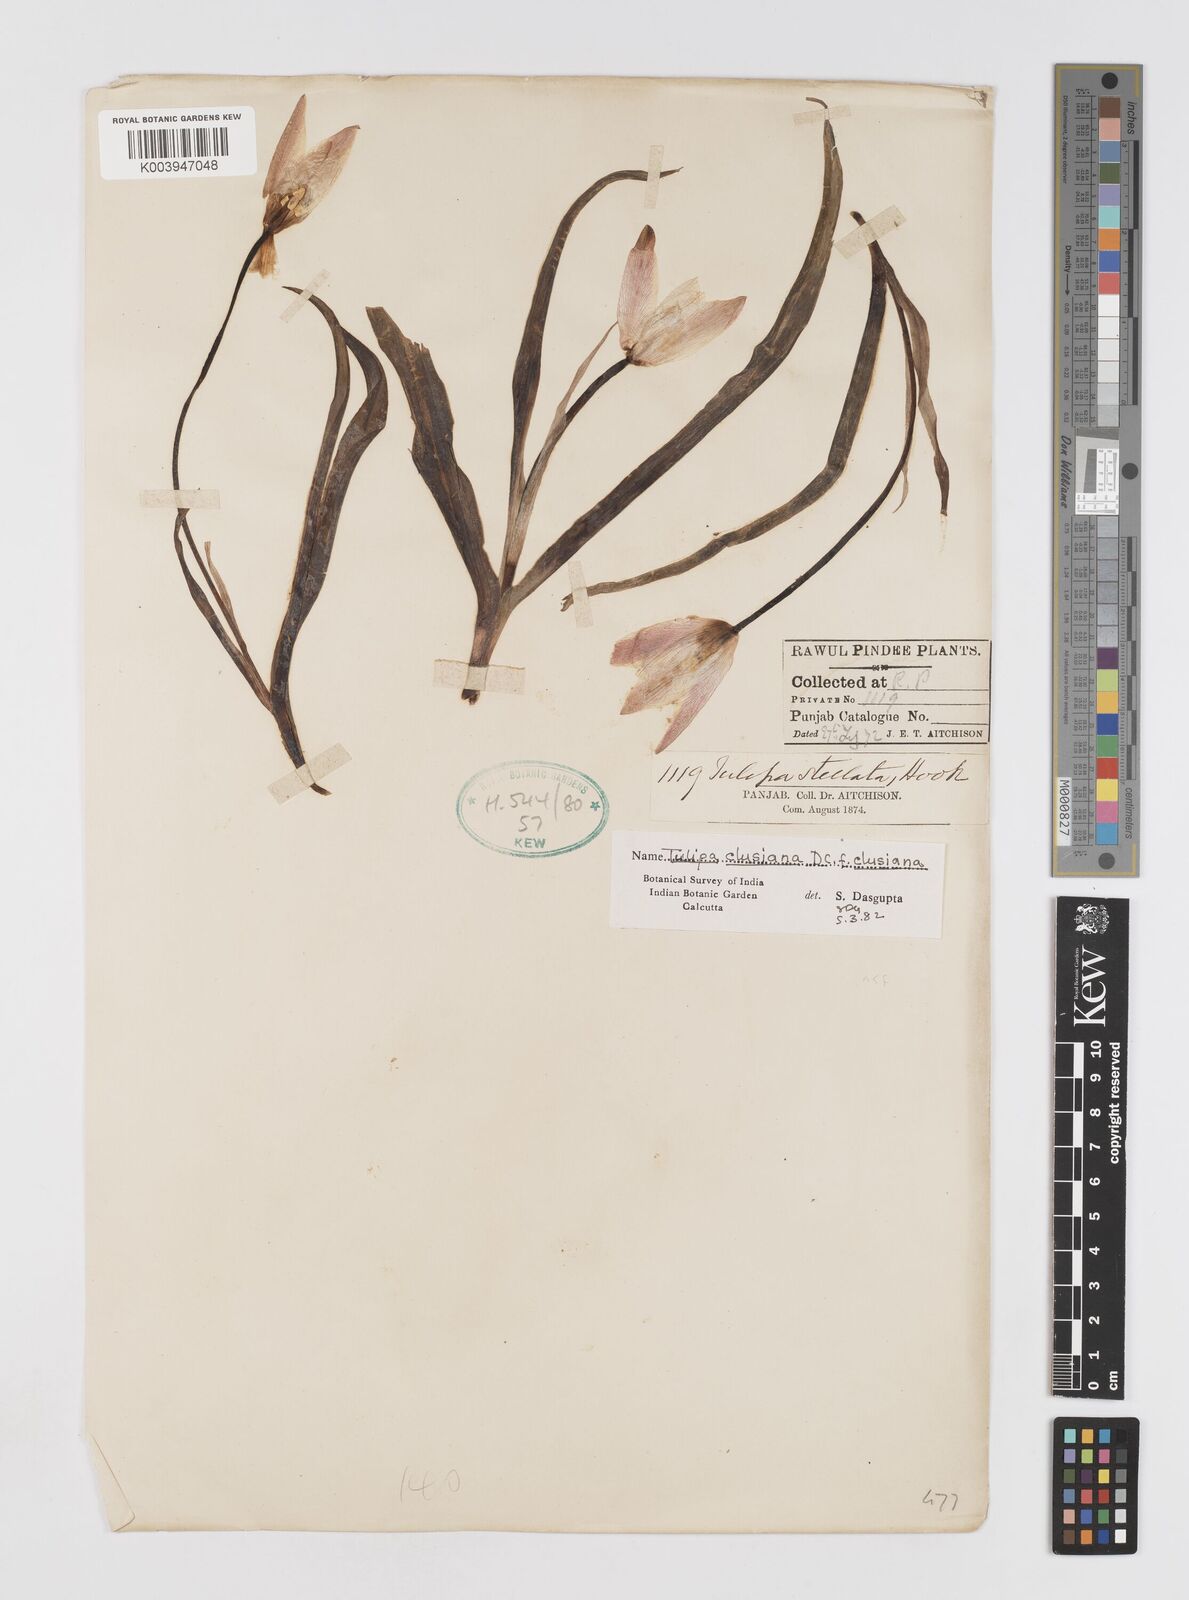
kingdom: Plantae
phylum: Tracheophyta
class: Liliopsida
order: Liliales
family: Liliaceae
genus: Tulipa
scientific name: Tulipa clusiana
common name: Lady tulip
